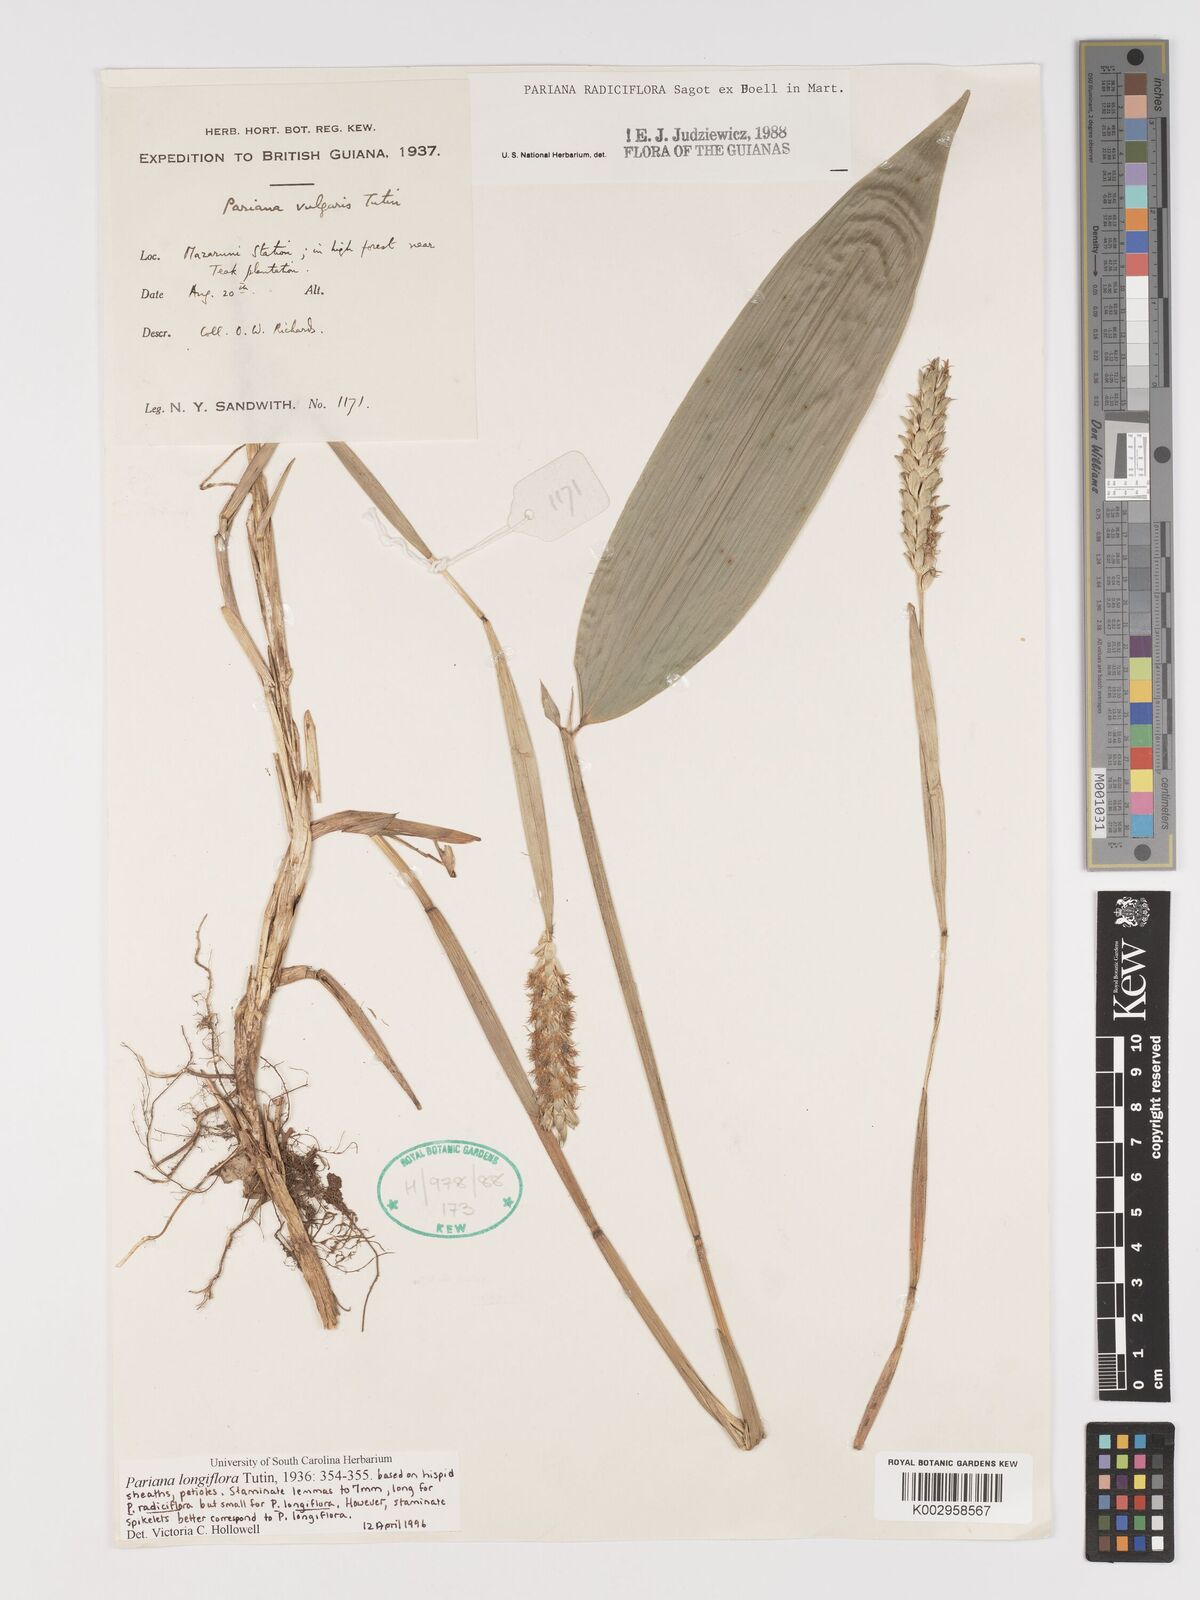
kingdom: Plantae
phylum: Tracheophyta
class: Liliopsida
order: Poales
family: Poaceae
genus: Pariana
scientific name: Pariana radiciflora
